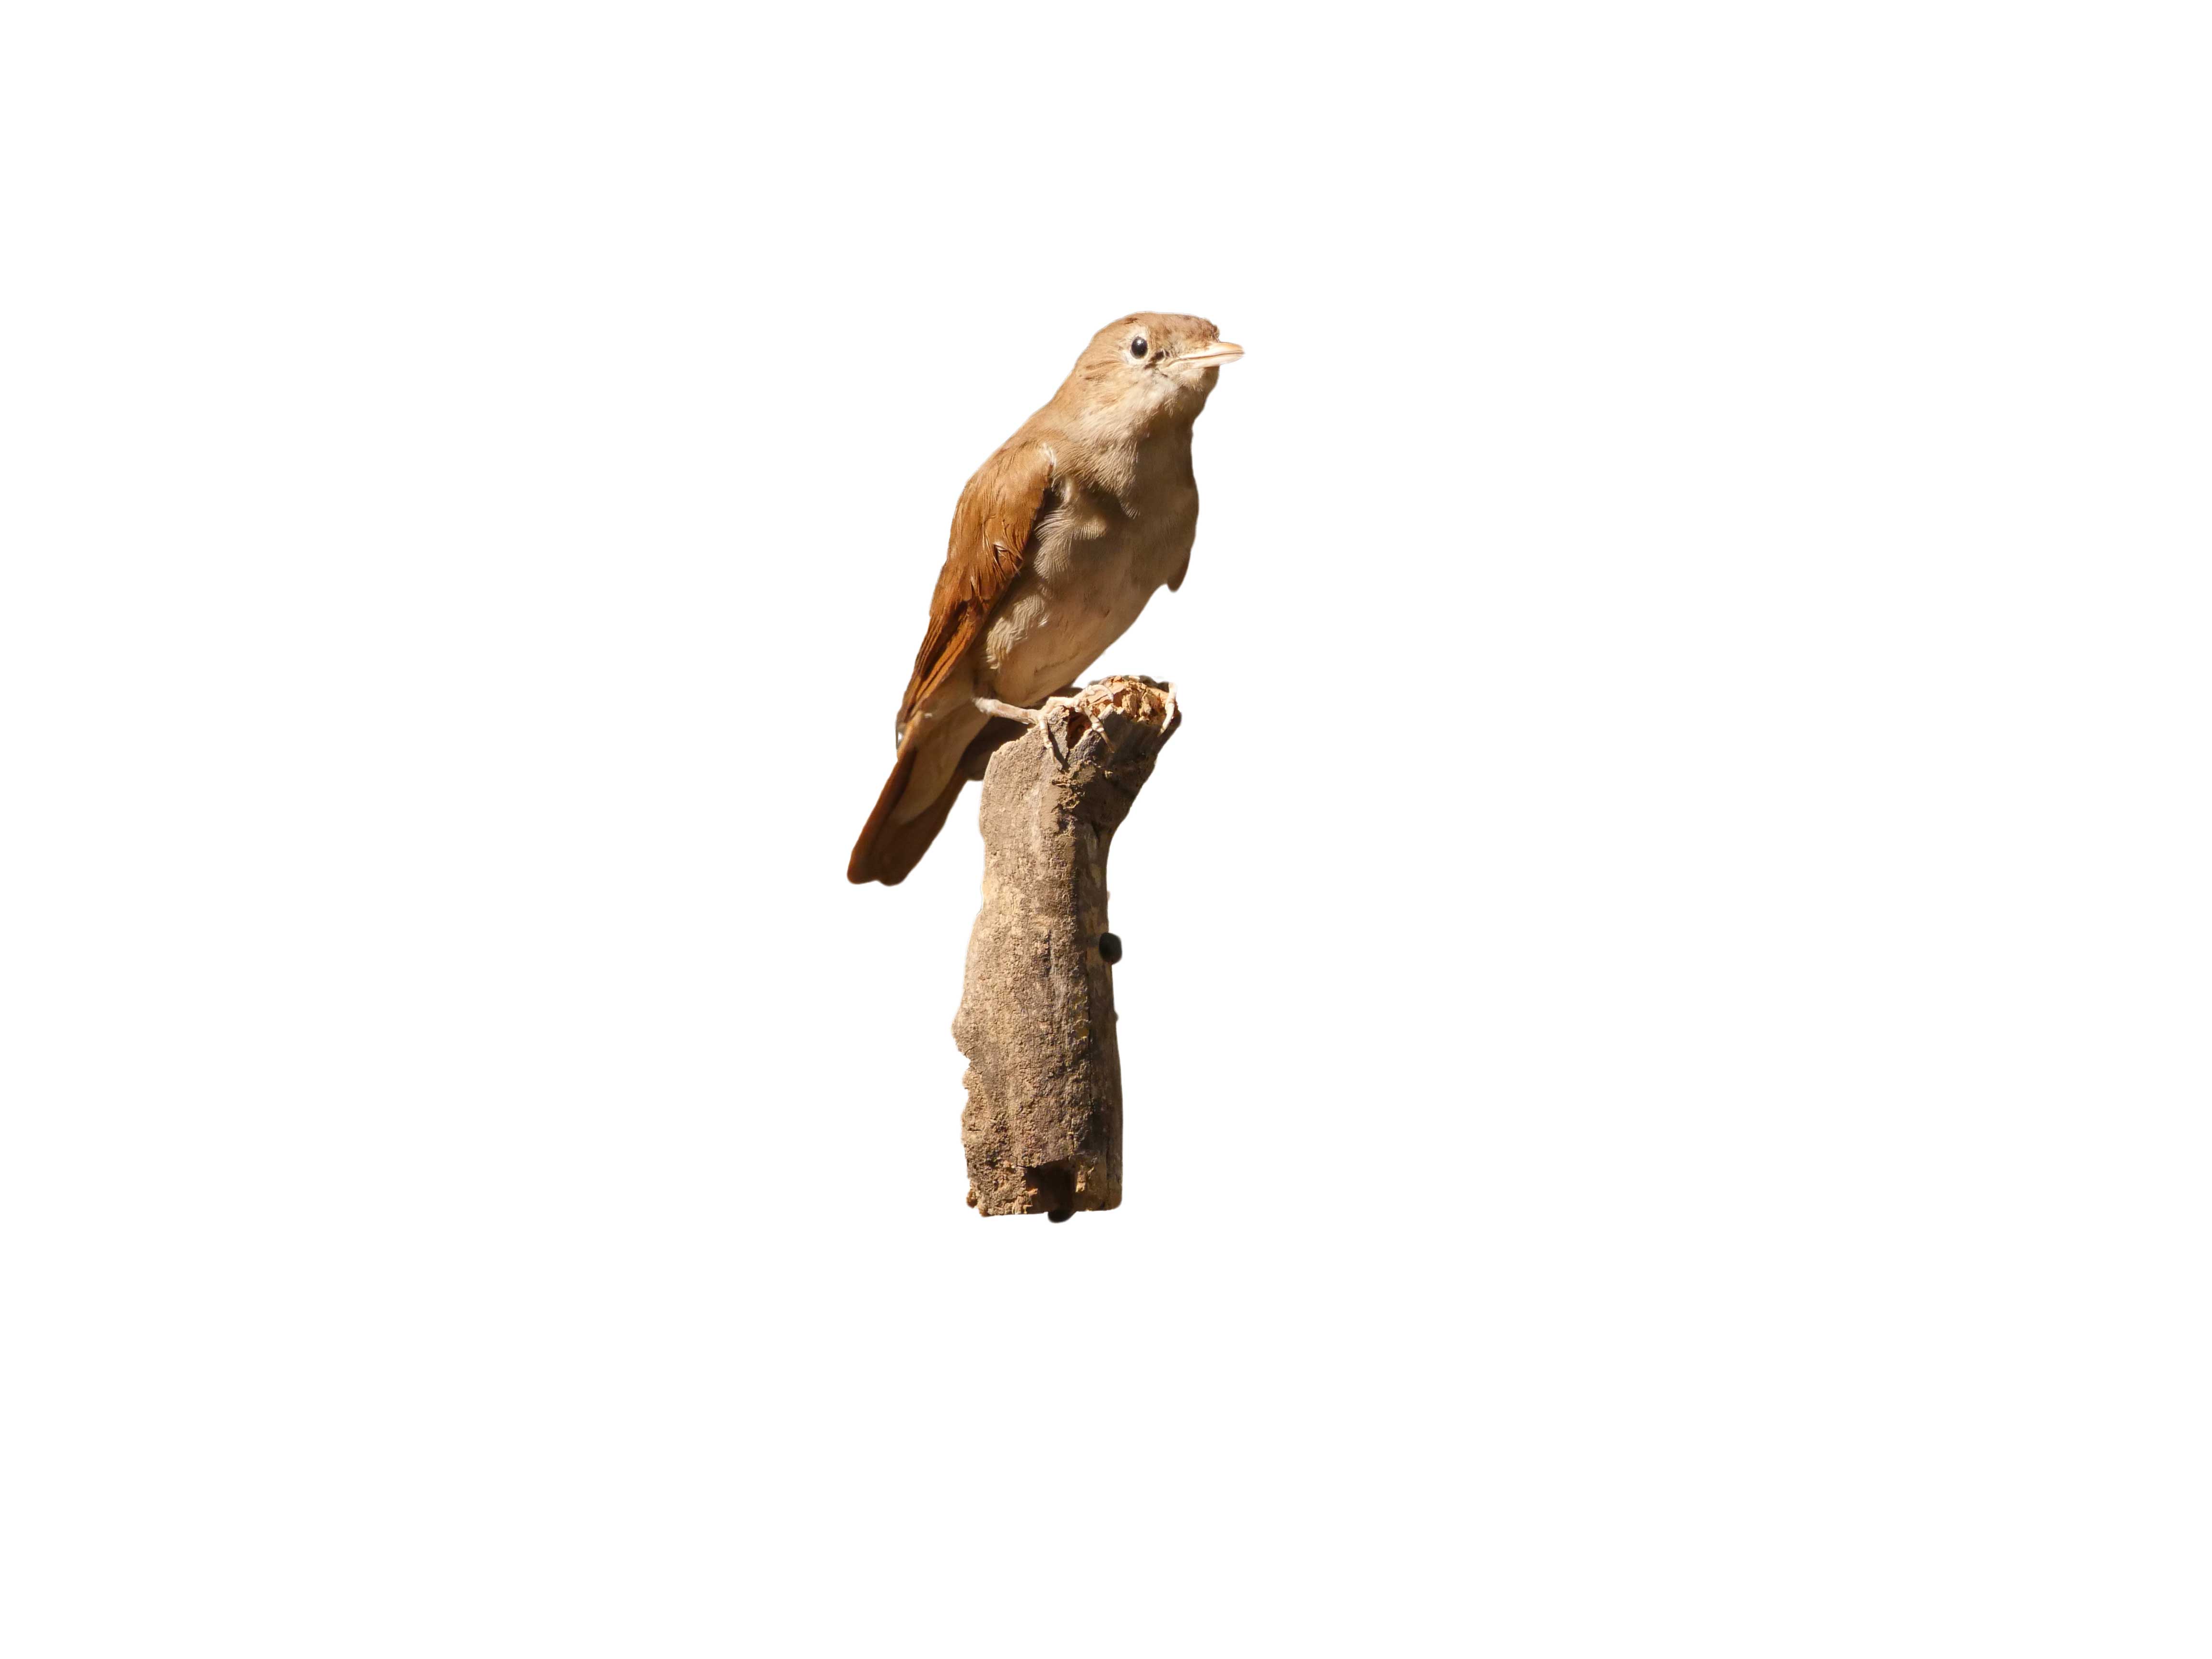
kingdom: Animalia
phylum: Chordata
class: Aves
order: Passeriformes
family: Muscicapidae
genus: Luscinia
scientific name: Luscinia megarhynchos
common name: Common nightingale
